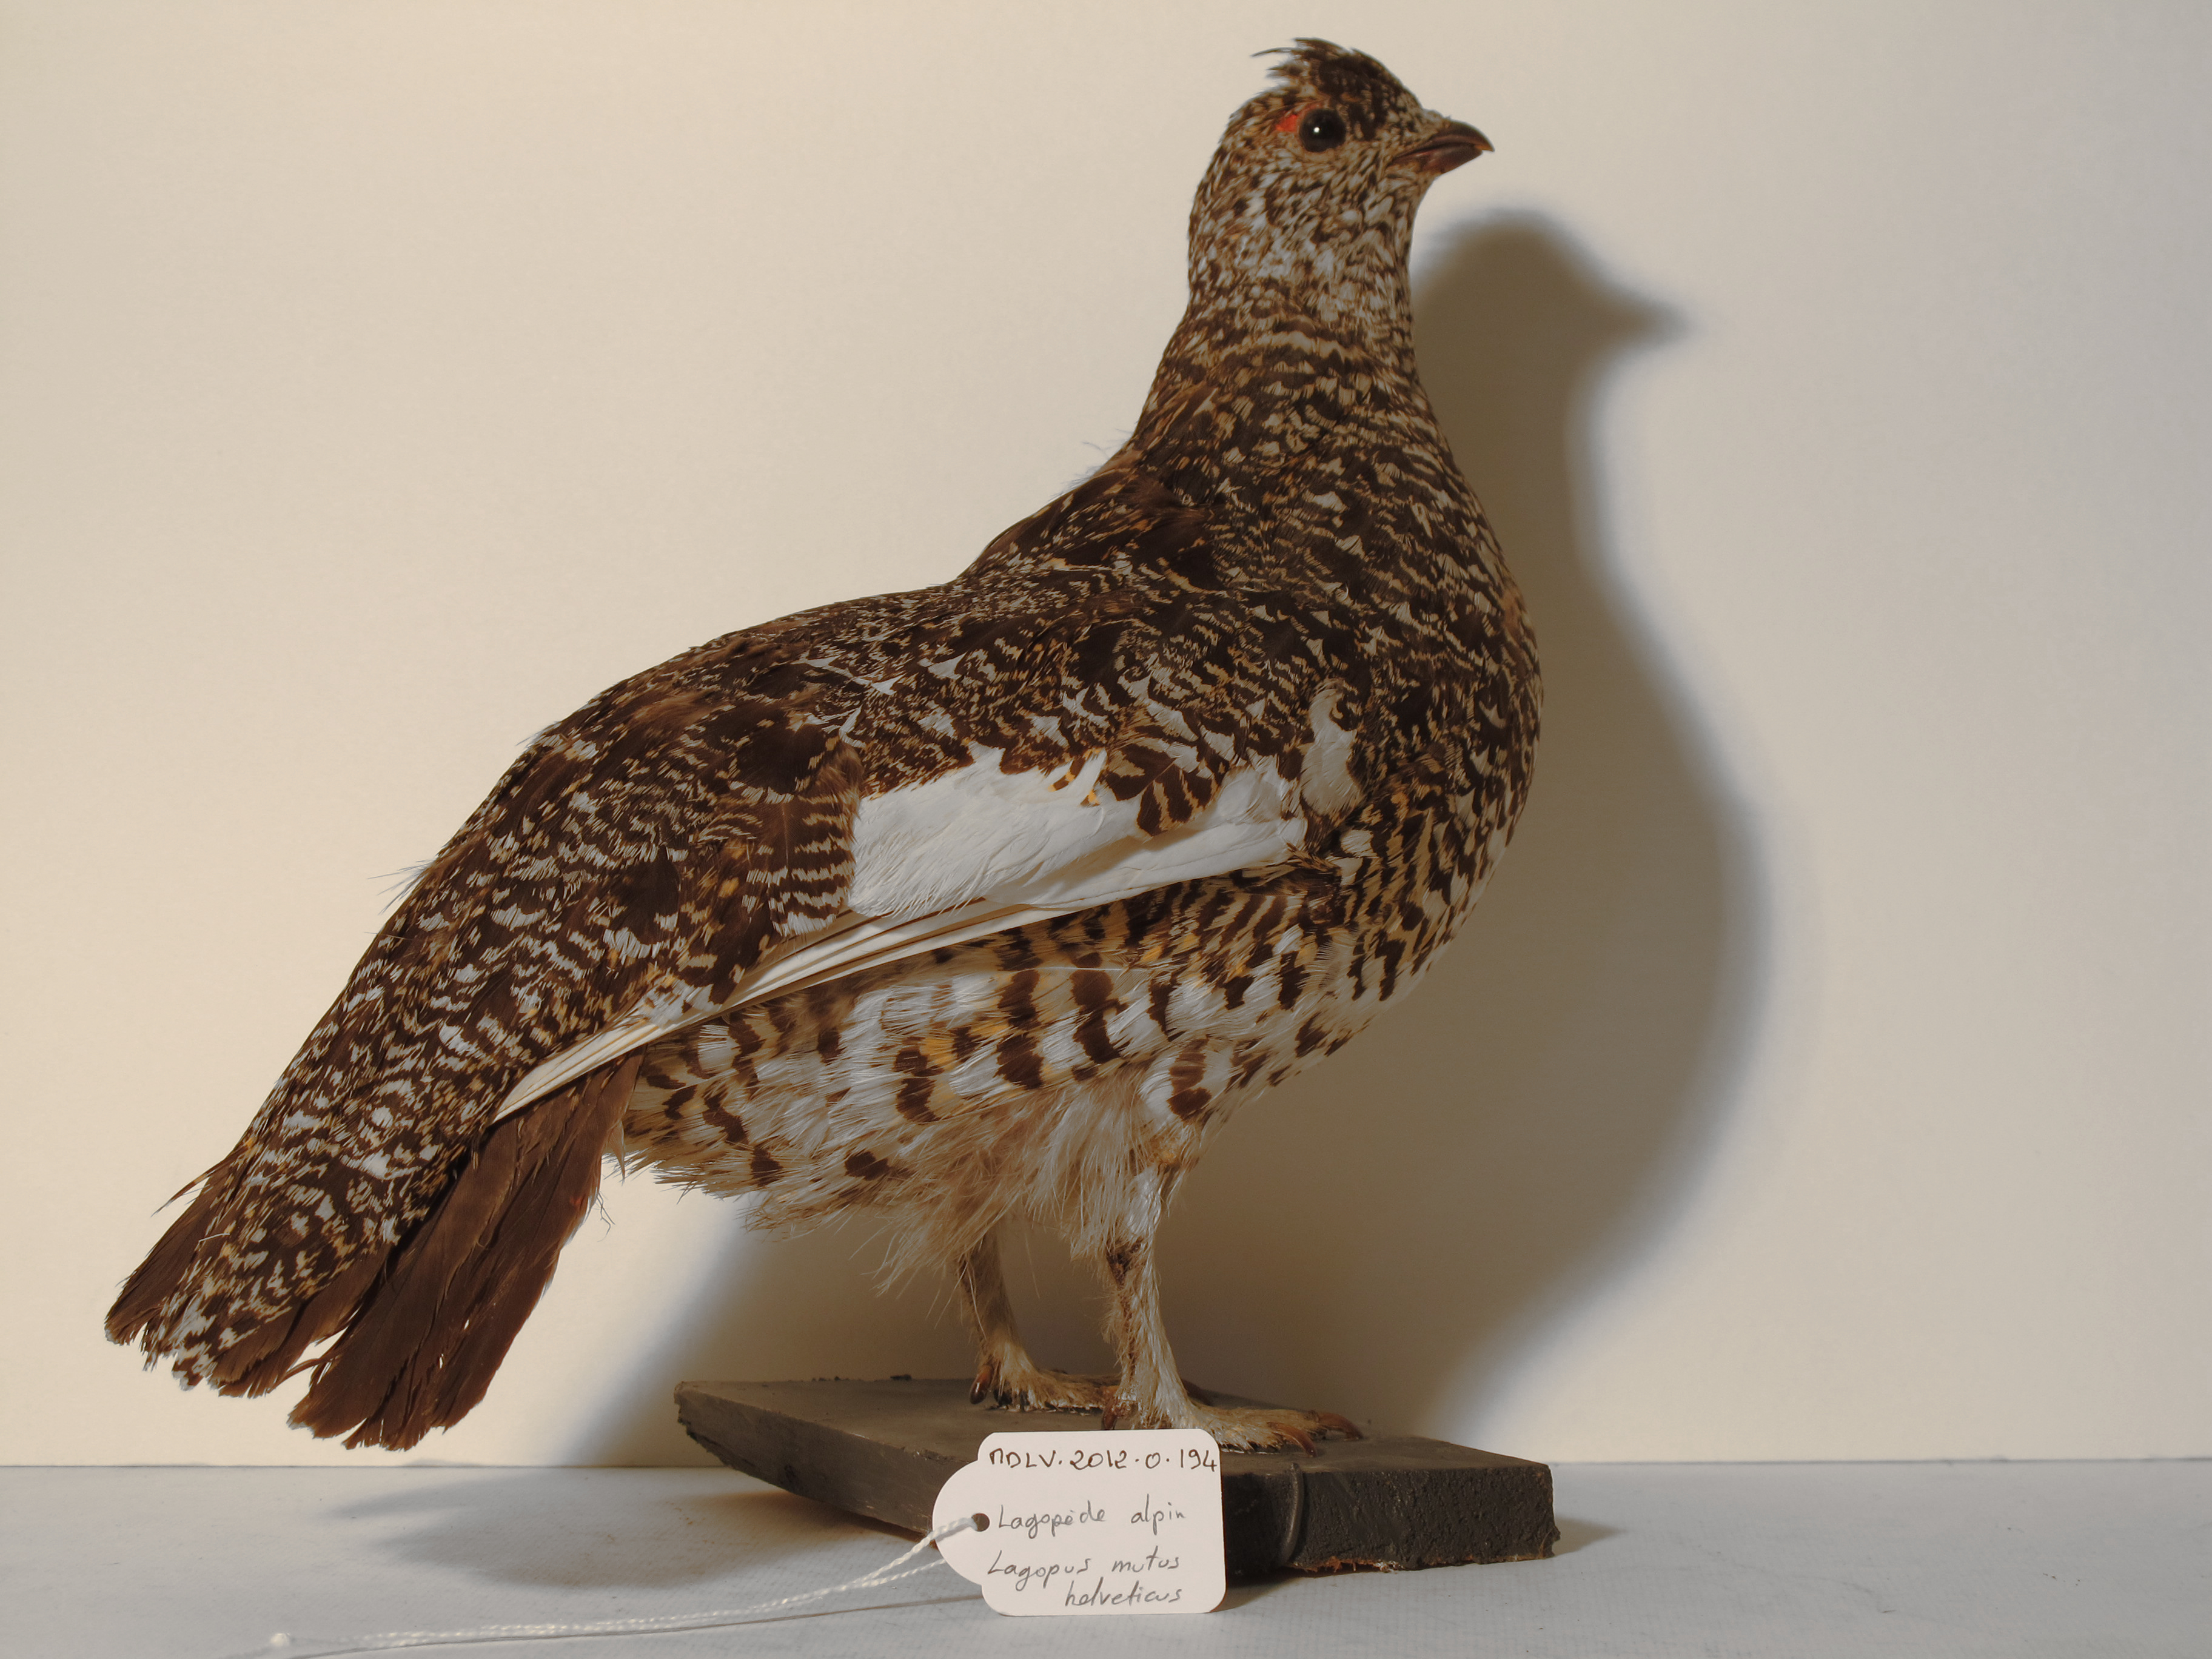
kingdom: Animalia
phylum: Chordata
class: Aves
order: Galliformes
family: Phasianidae
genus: Lagopus
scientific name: Lagopus muta
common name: Rock Ptarmigan
